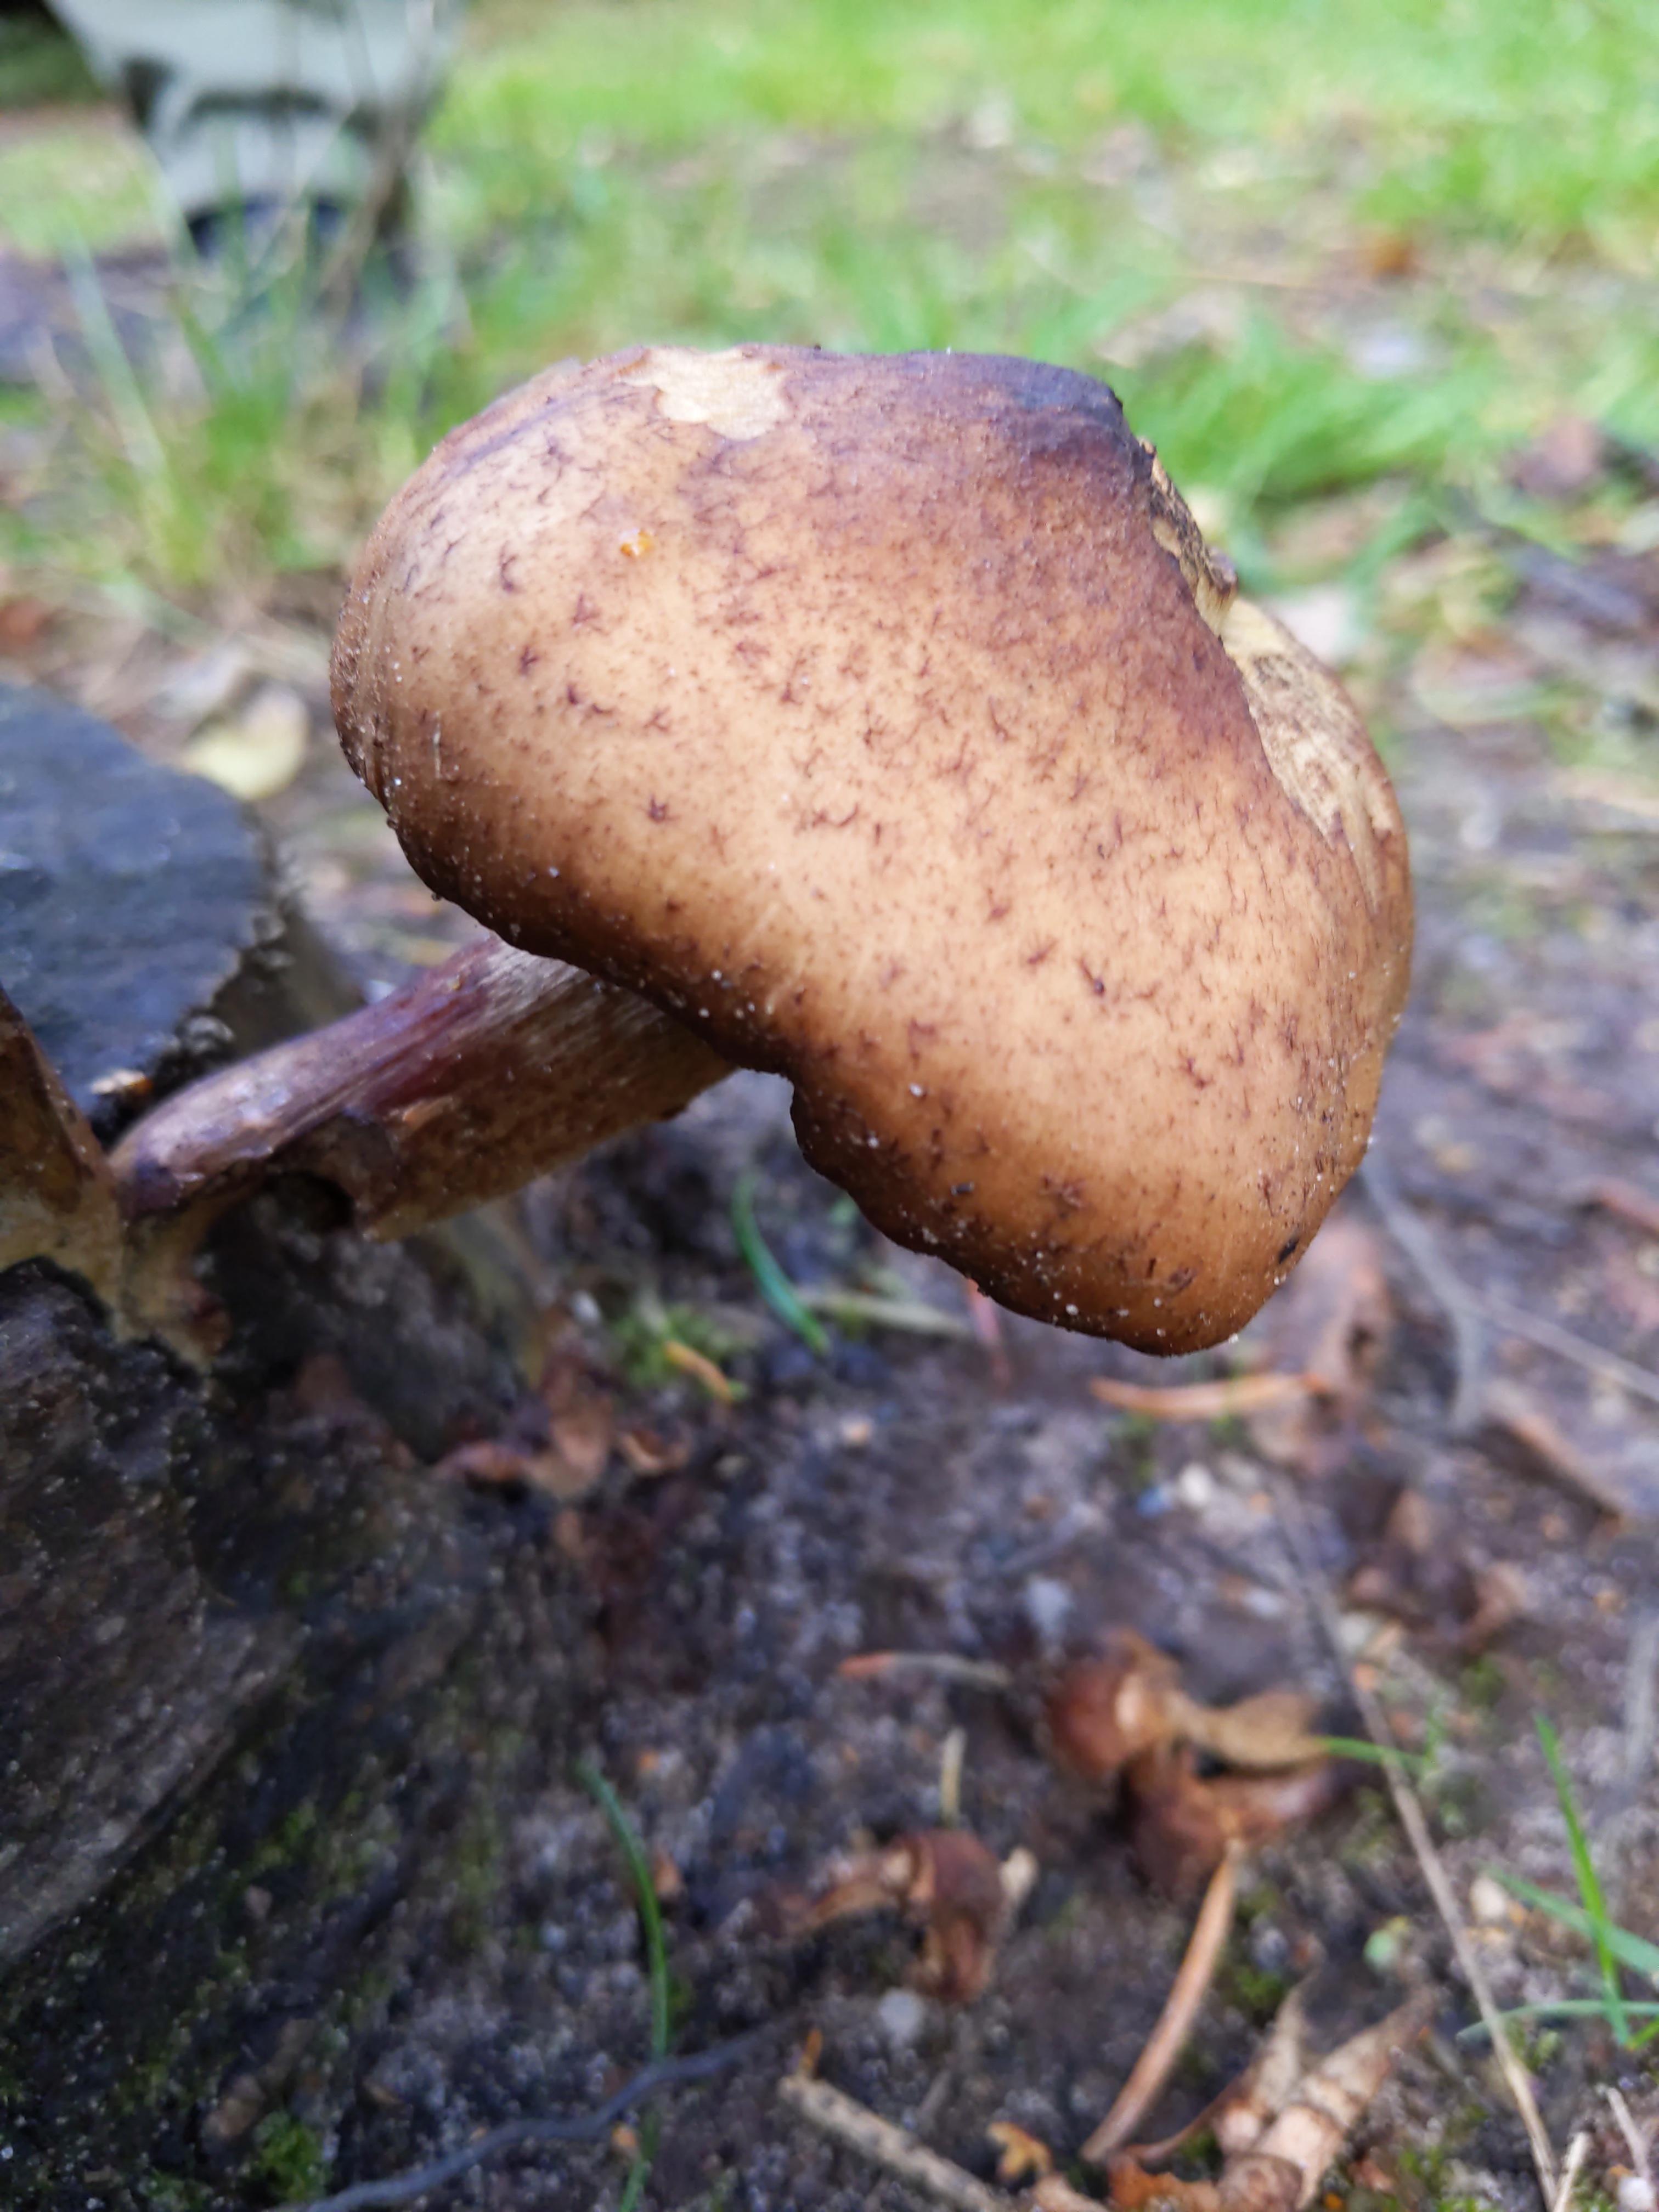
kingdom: Fungi
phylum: Basidiomycota
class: Agaricomycetes
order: Agaricales
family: Physalacriaceae
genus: Armillaria
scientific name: Armillaria ostoyae
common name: mørk honningsvamp
